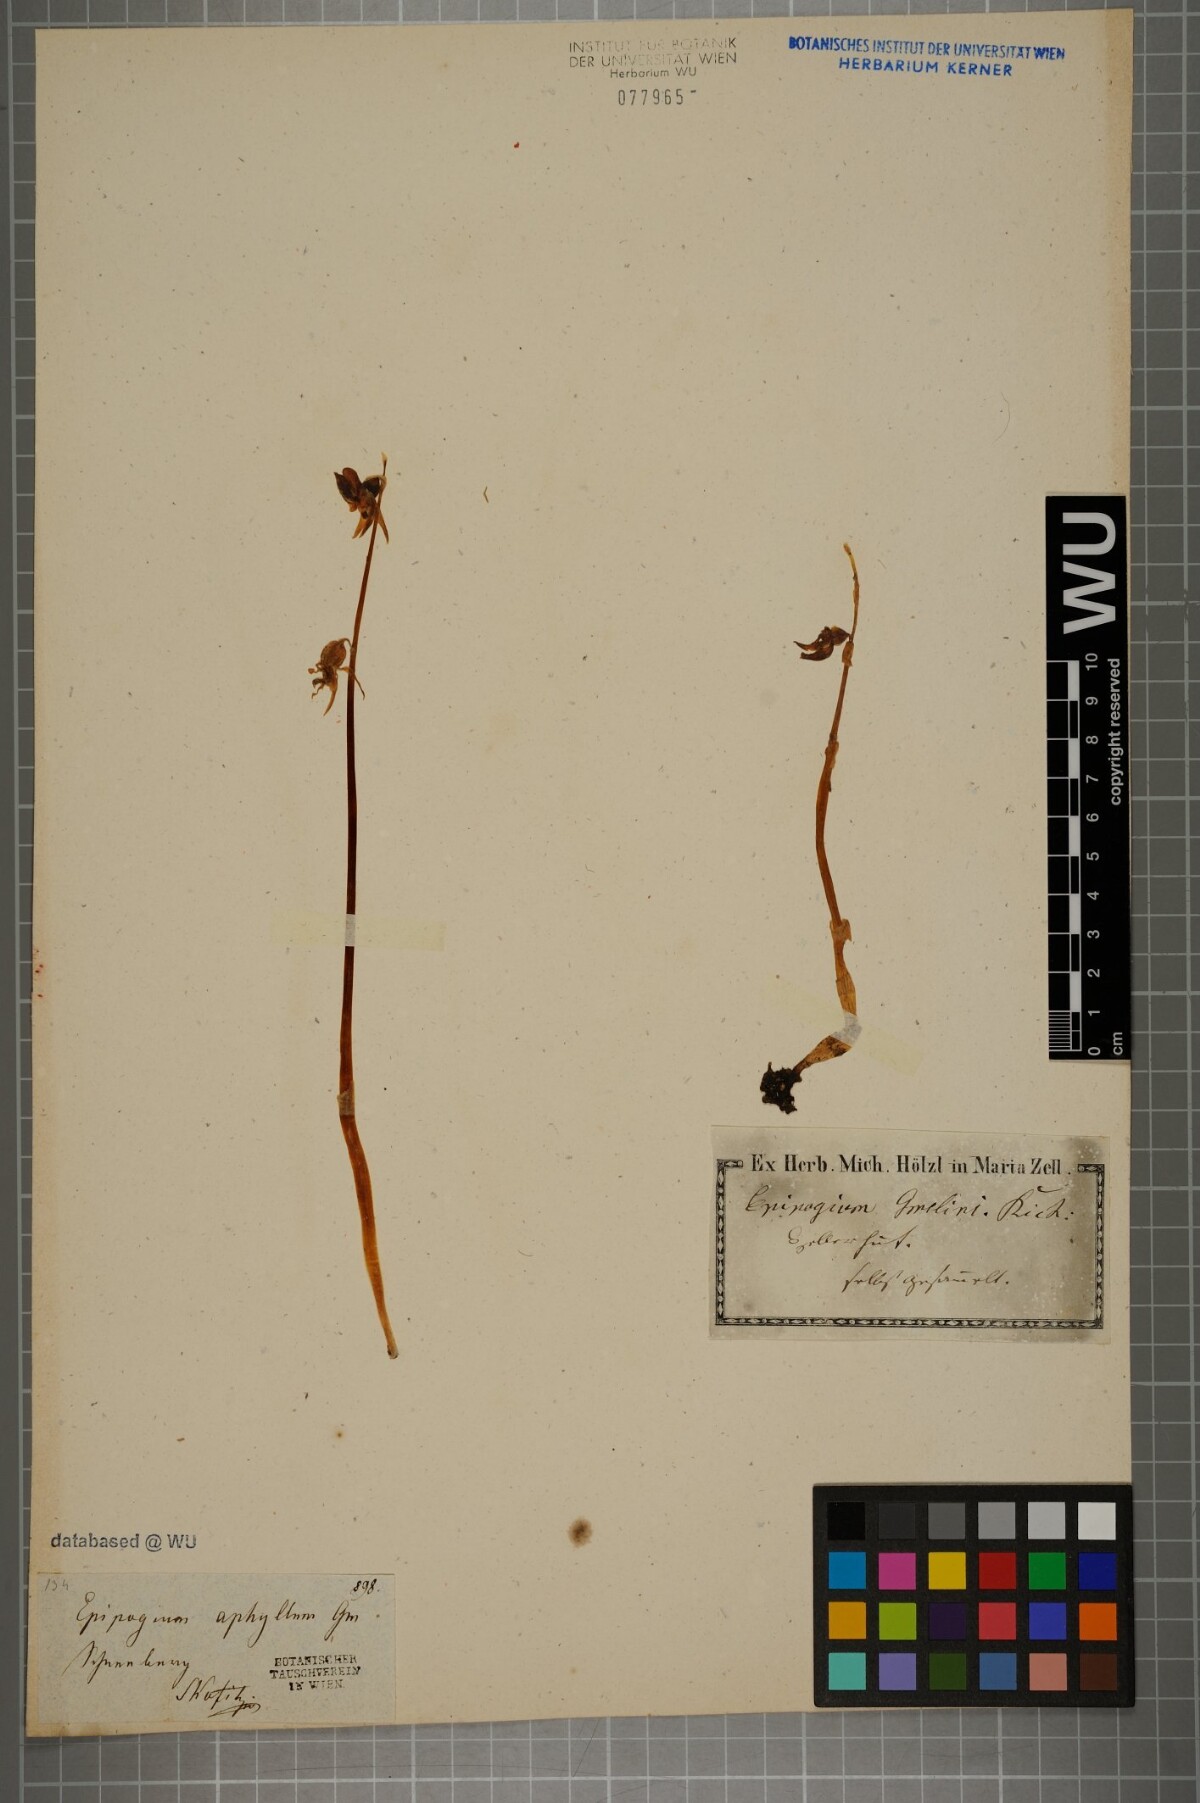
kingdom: Plantae
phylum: Tracheophyta
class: Liliopsida
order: Asparagales
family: Orchidaceae
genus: Epipogium
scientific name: Epipogium aphyllum
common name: Ghost orchid
